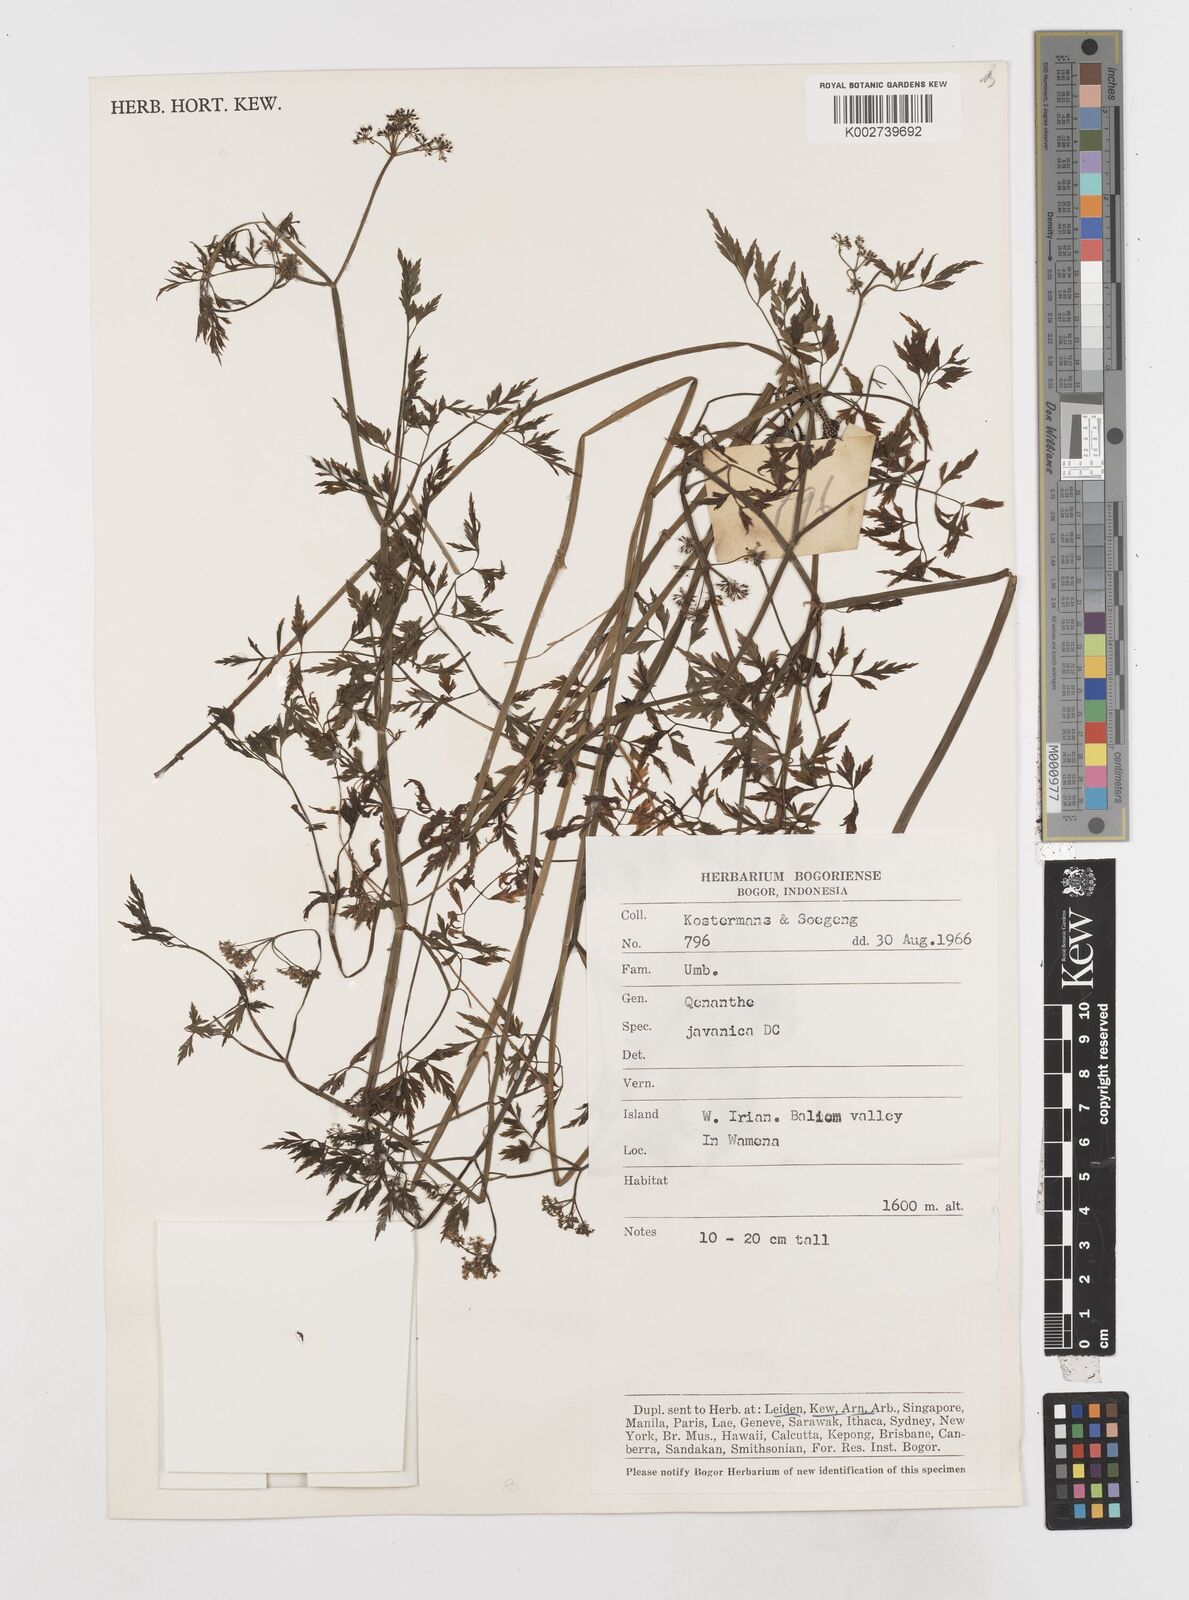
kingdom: Plantae
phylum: Tracheophyta
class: Magnoliopsida
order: Apiales
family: Apiaceae
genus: Oenanthe
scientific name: Oenanthe javanica
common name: Java water-dropwort
